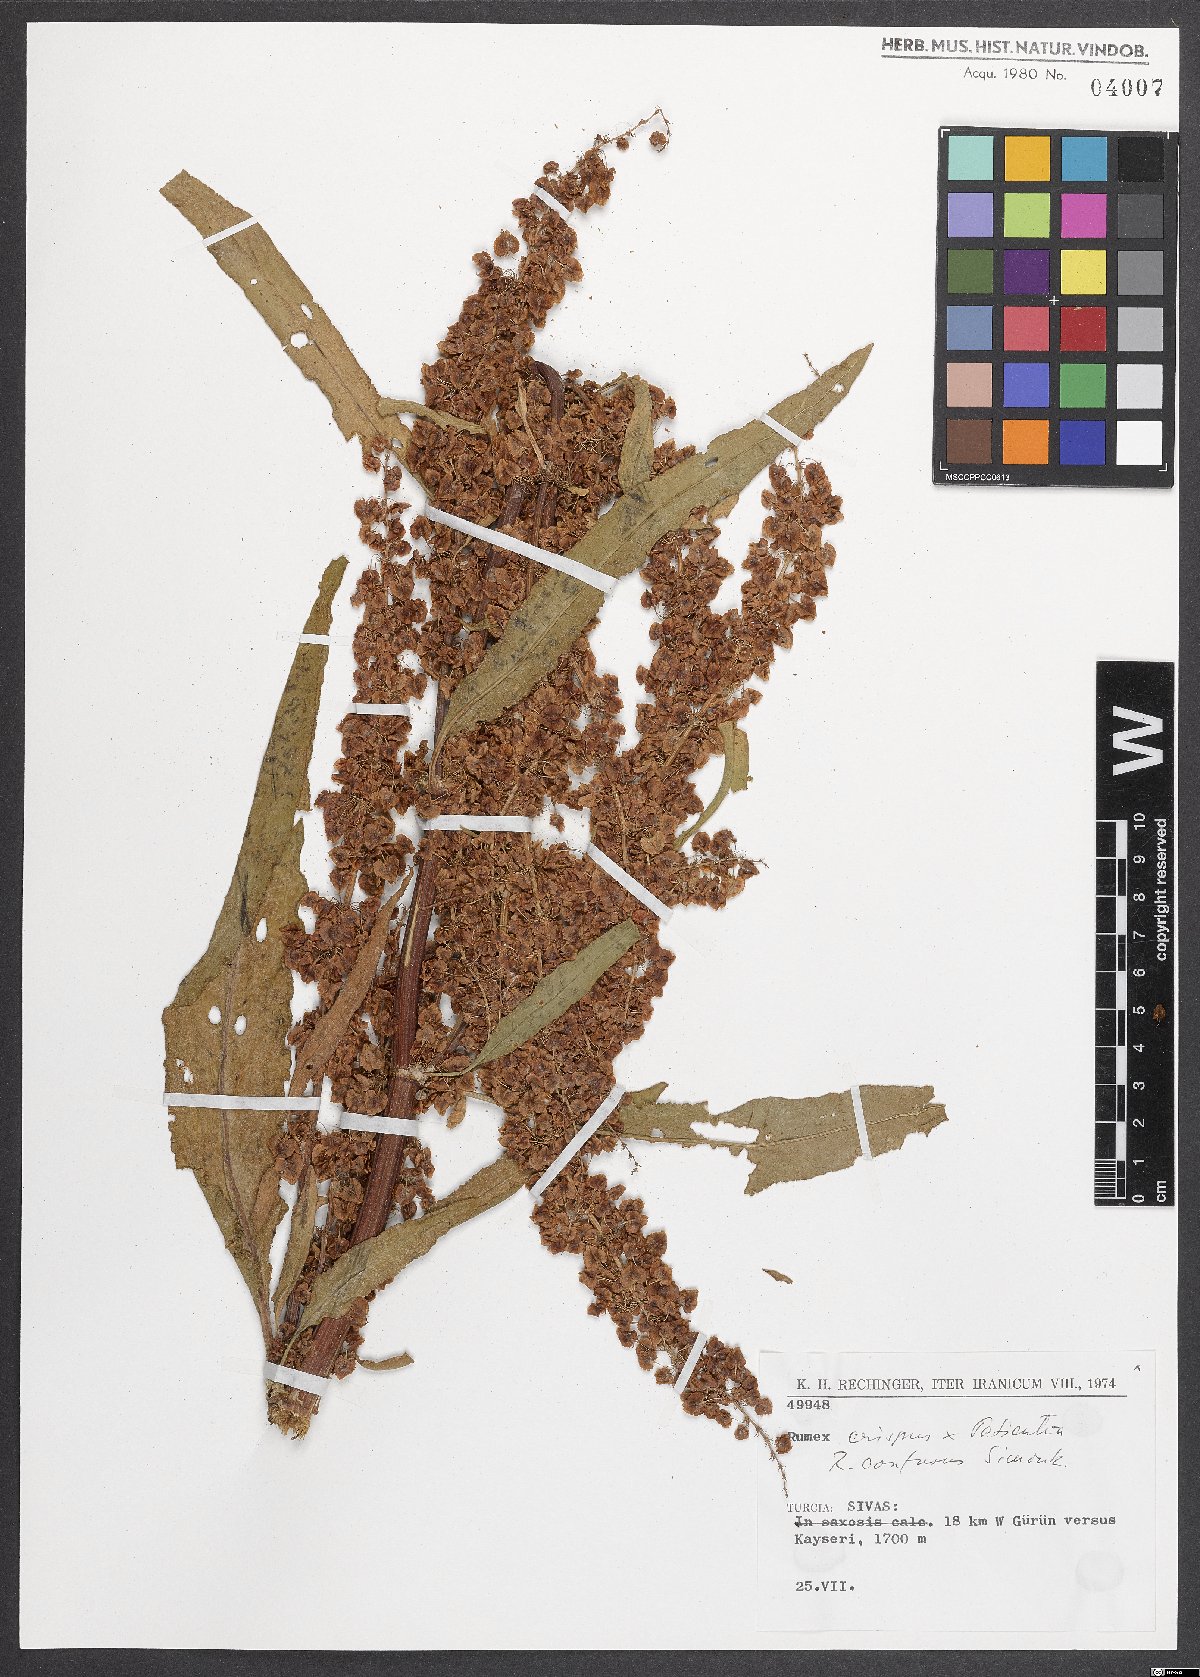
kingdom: Plantae
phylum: Tracheophyta
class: Magnoliopsida
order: Caryophyllales
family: Polygonaceae
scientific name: Polygonaceae
